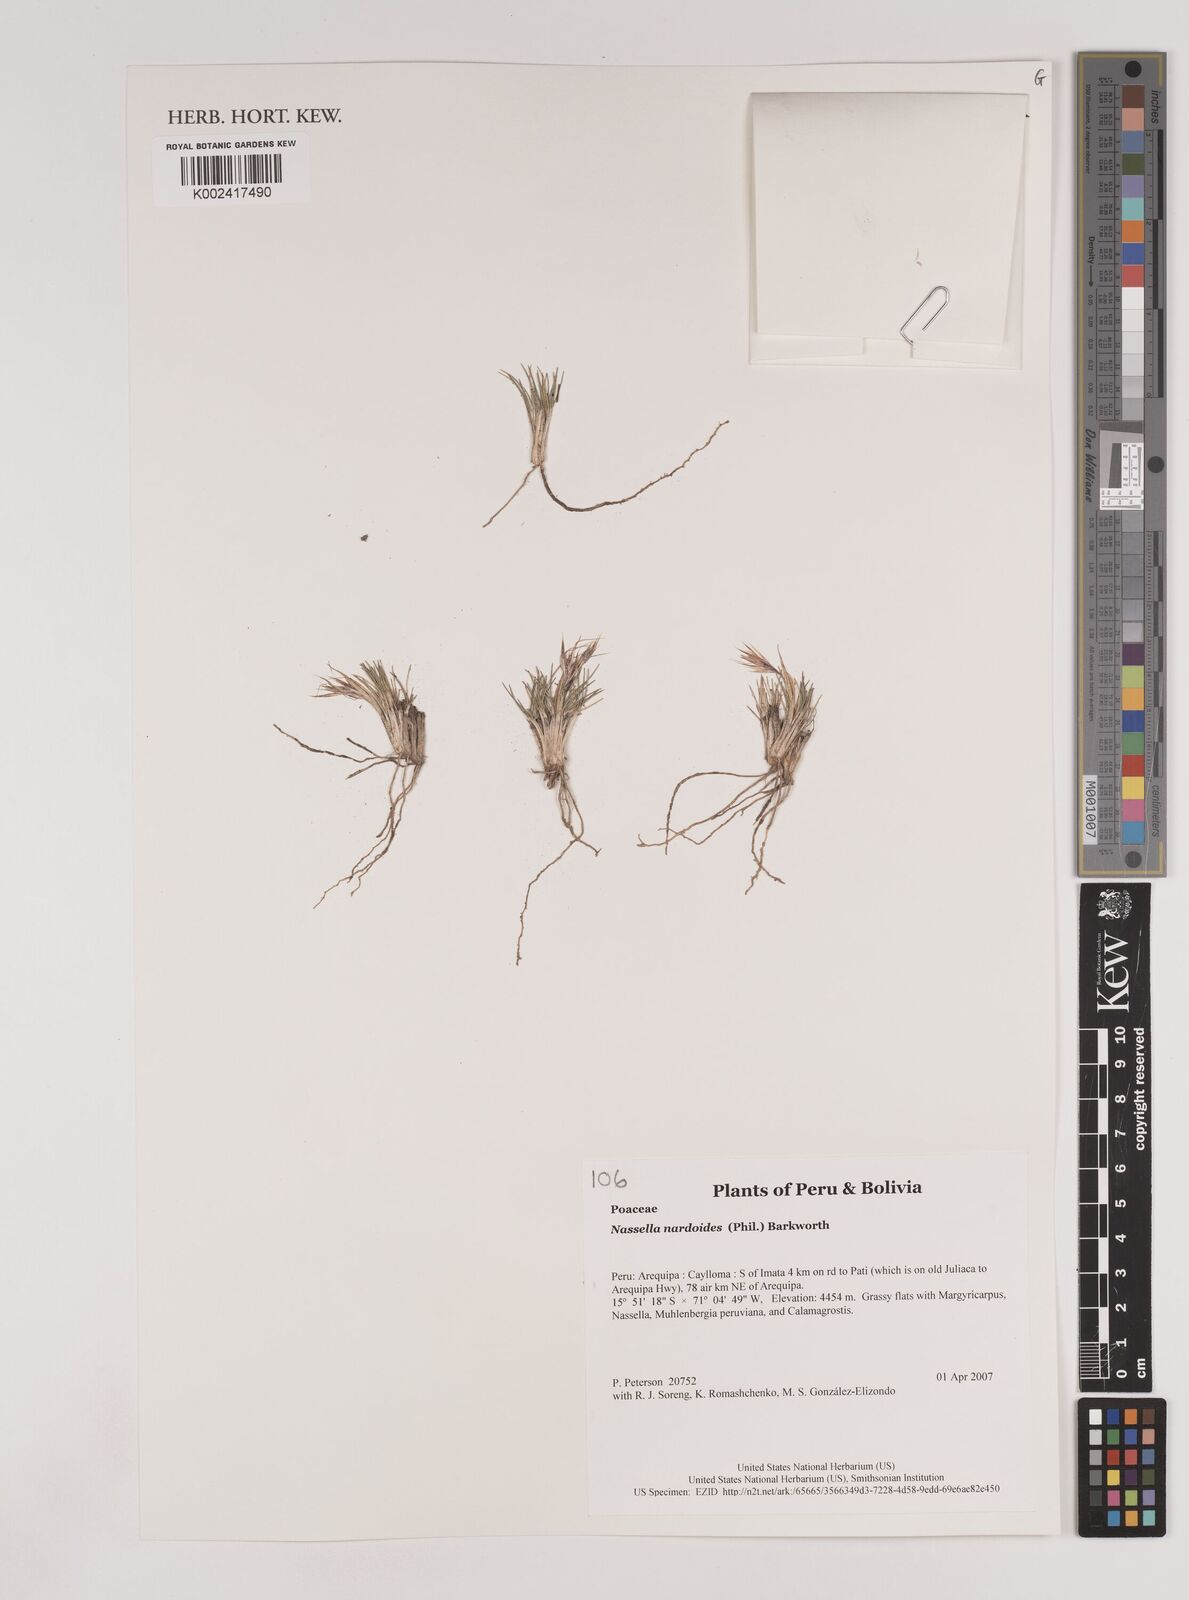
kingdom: Plantae
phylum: Tracheophyta
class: Liliopsida
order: Poales
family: Poaceae
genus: Nassella
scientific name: Nassella nardoides
